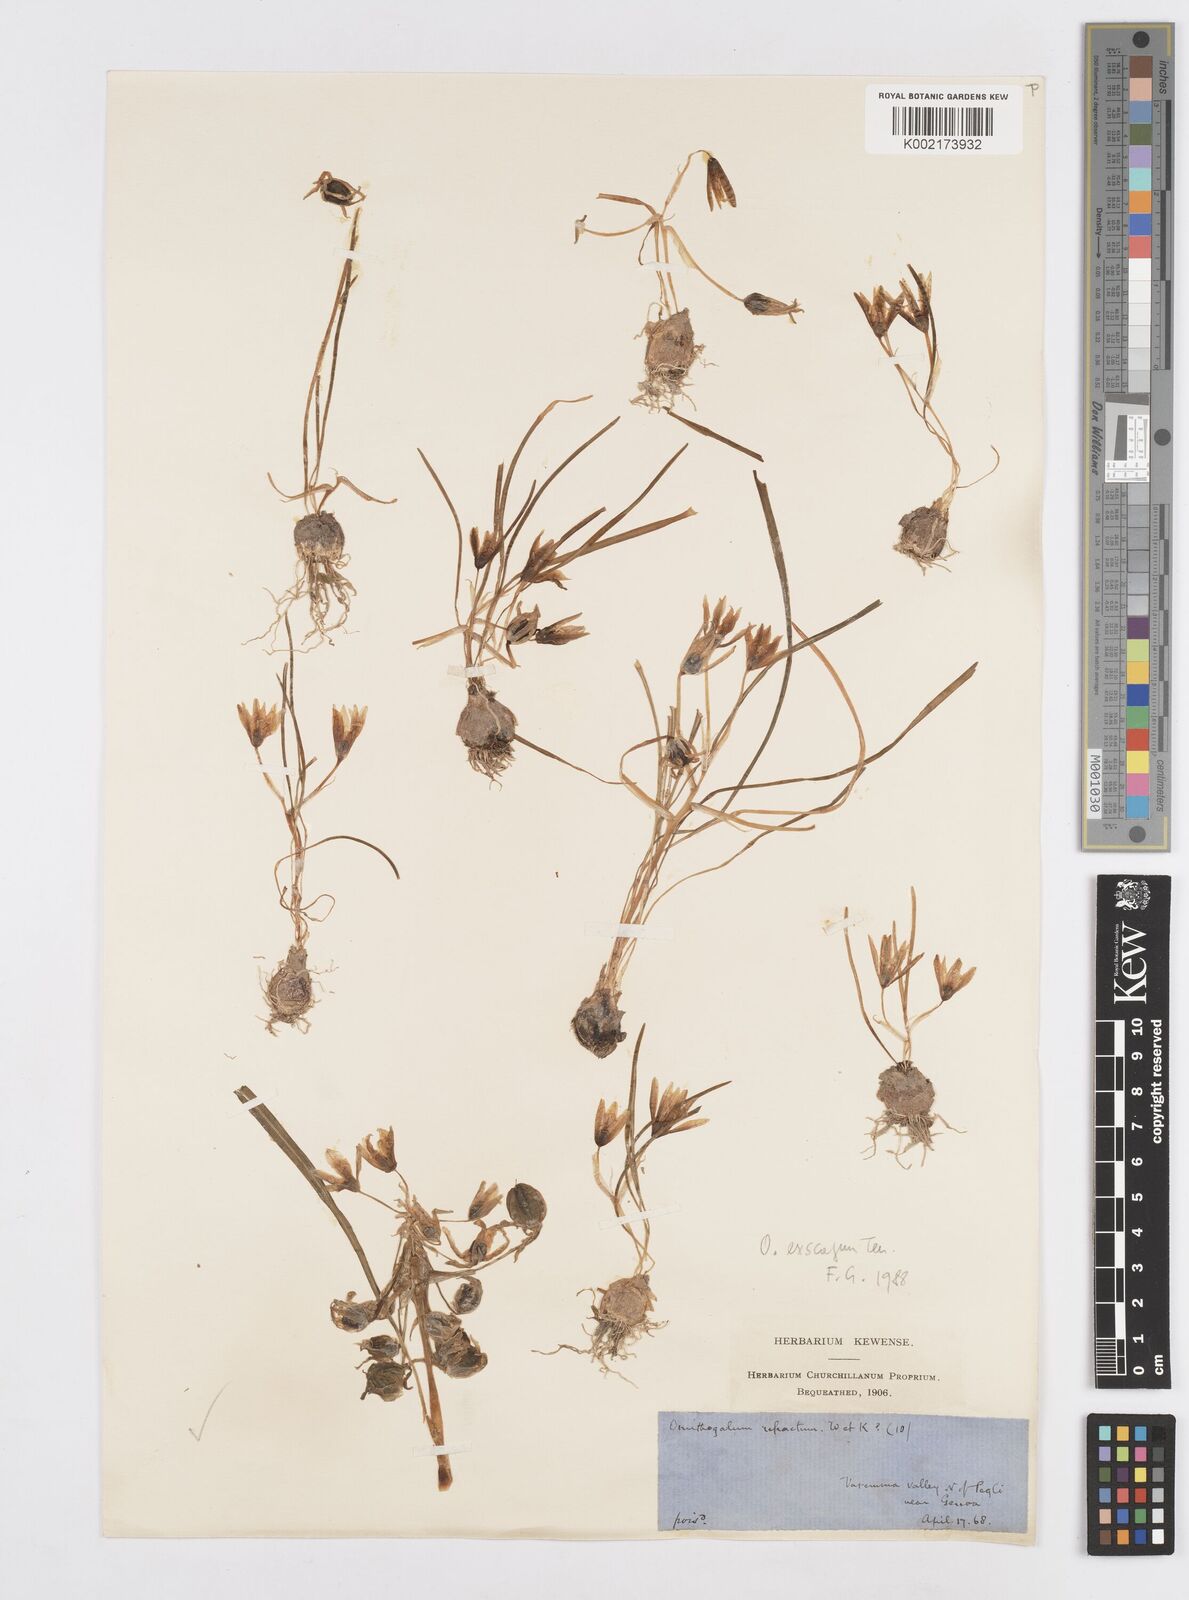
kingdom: Plantae
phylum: Tracheophyta
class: Liliopsida
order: Asparagales
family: Asparagaceae
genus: Ornithogalum
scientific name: Ornithogalum refractum
